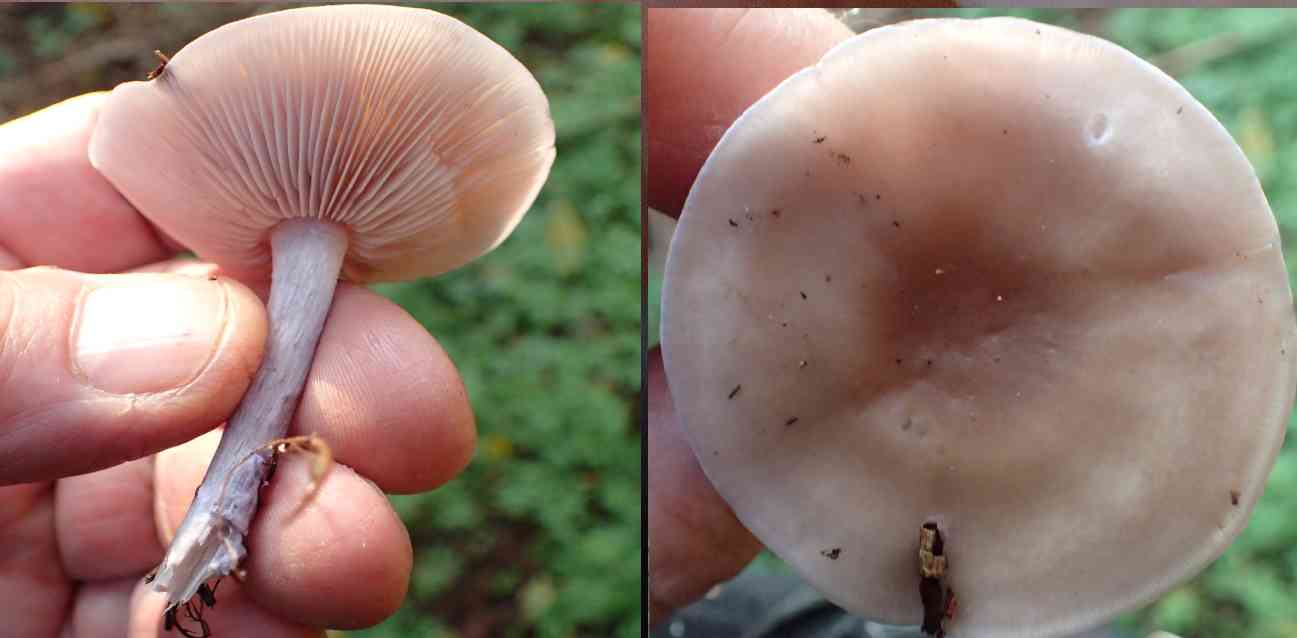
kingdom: Fungi
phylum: Basidiomycota
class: Agaricomycetes
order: Agaricales
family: Tricholomataceae
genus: Lepista
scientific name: Lepista
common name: hekseringshat
